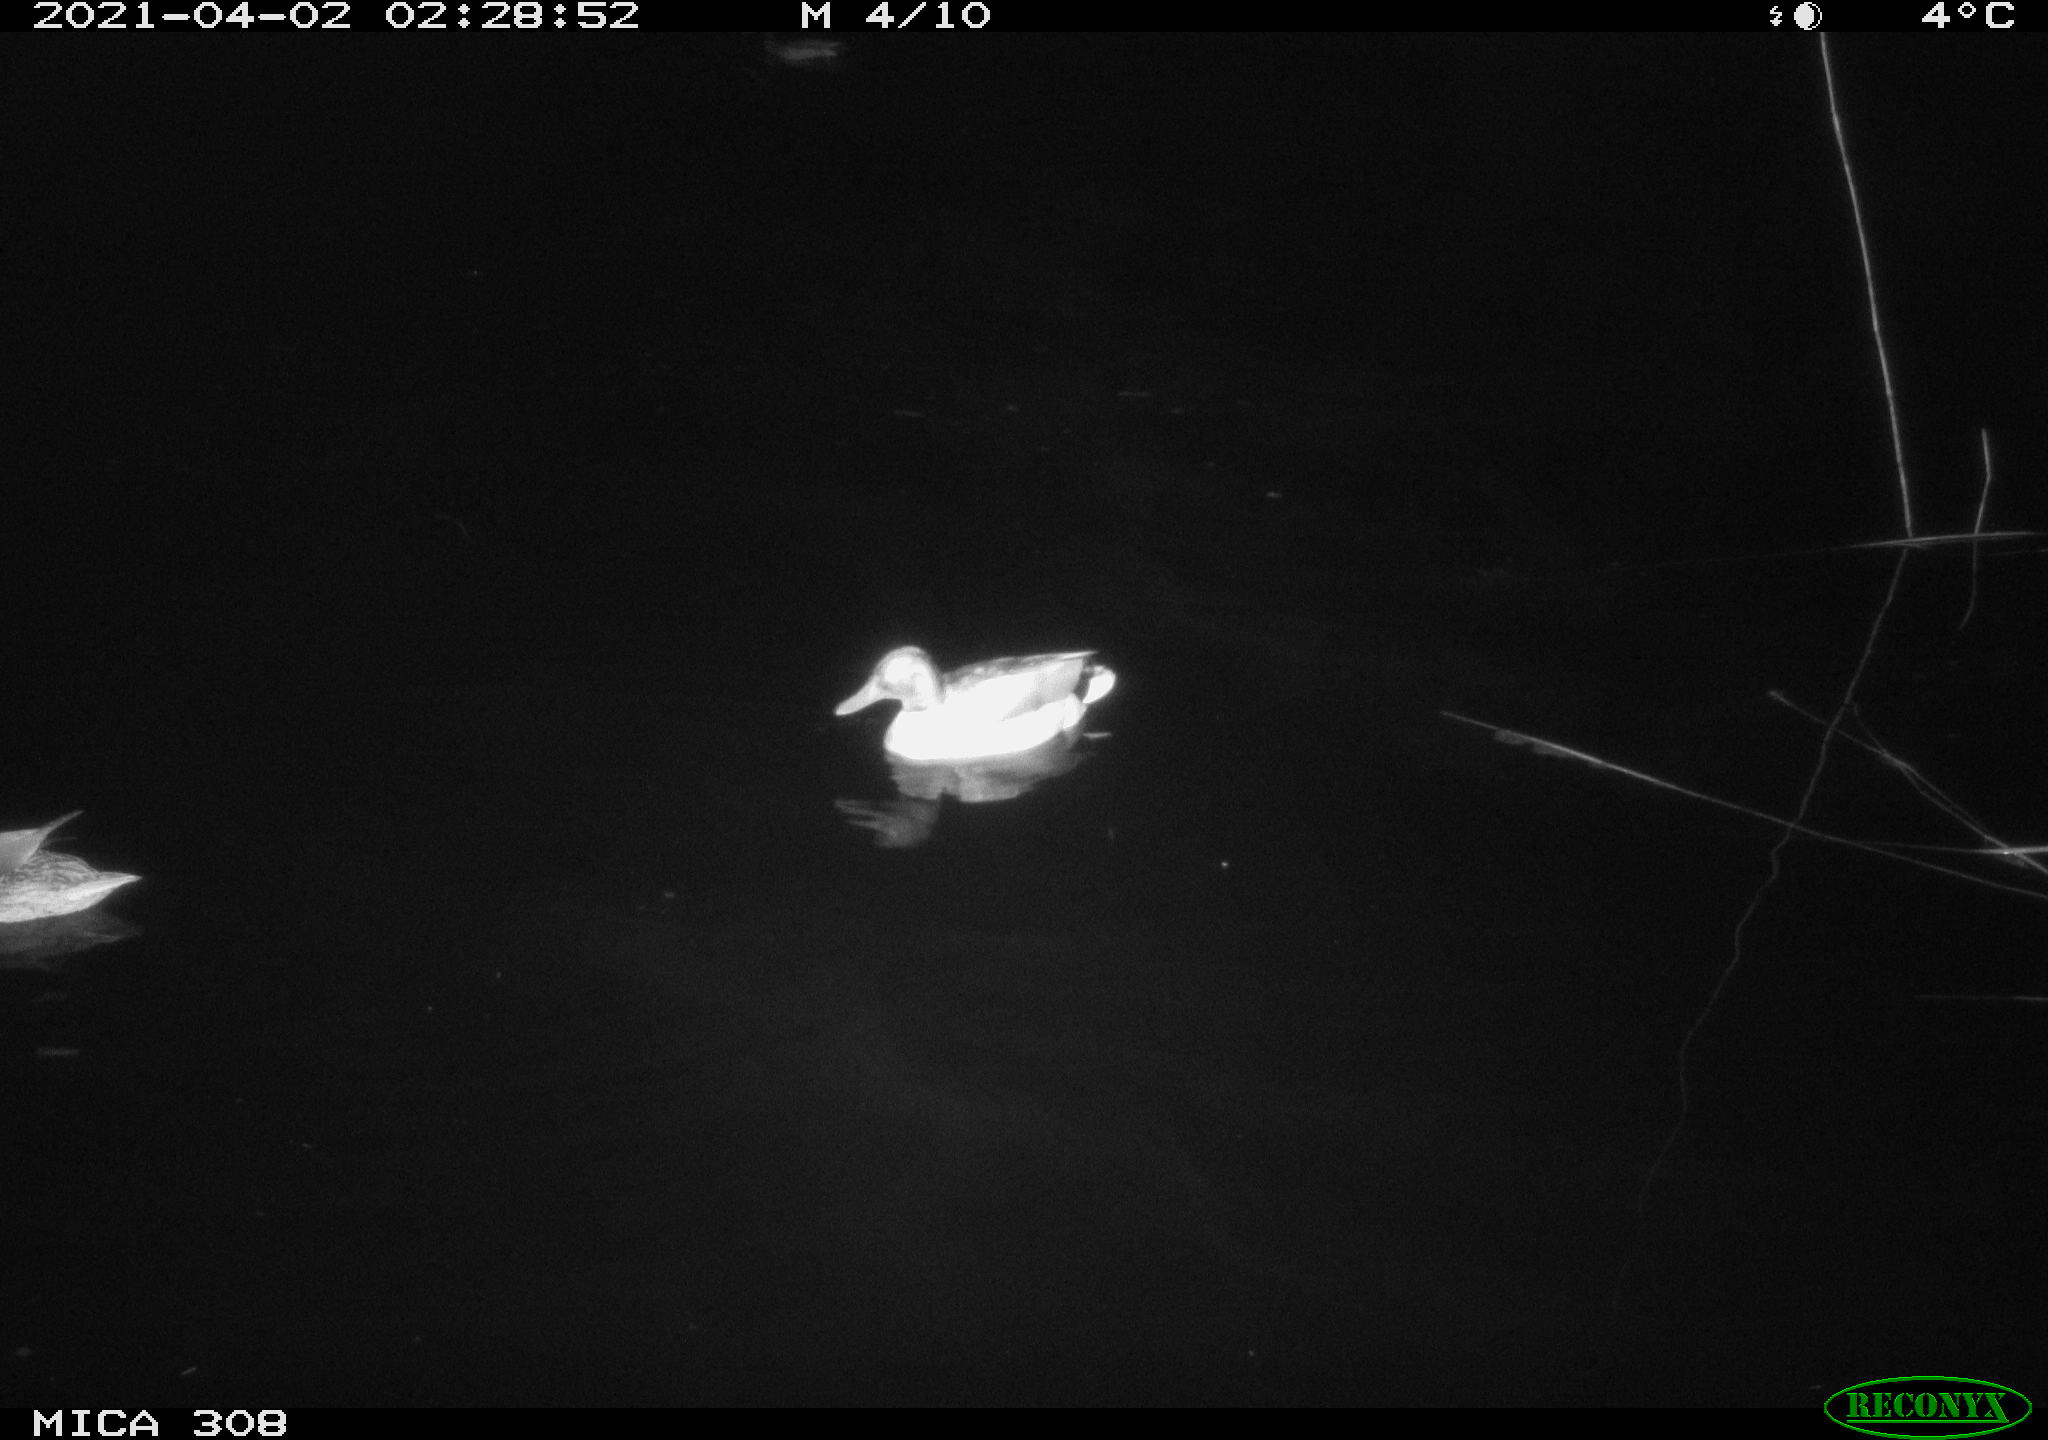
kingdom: Animalia
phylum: Chordata
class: Aves
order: Anseriformes
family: Anatidae
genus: Anas
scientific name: Anas platyrhynchos
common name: Mallard
